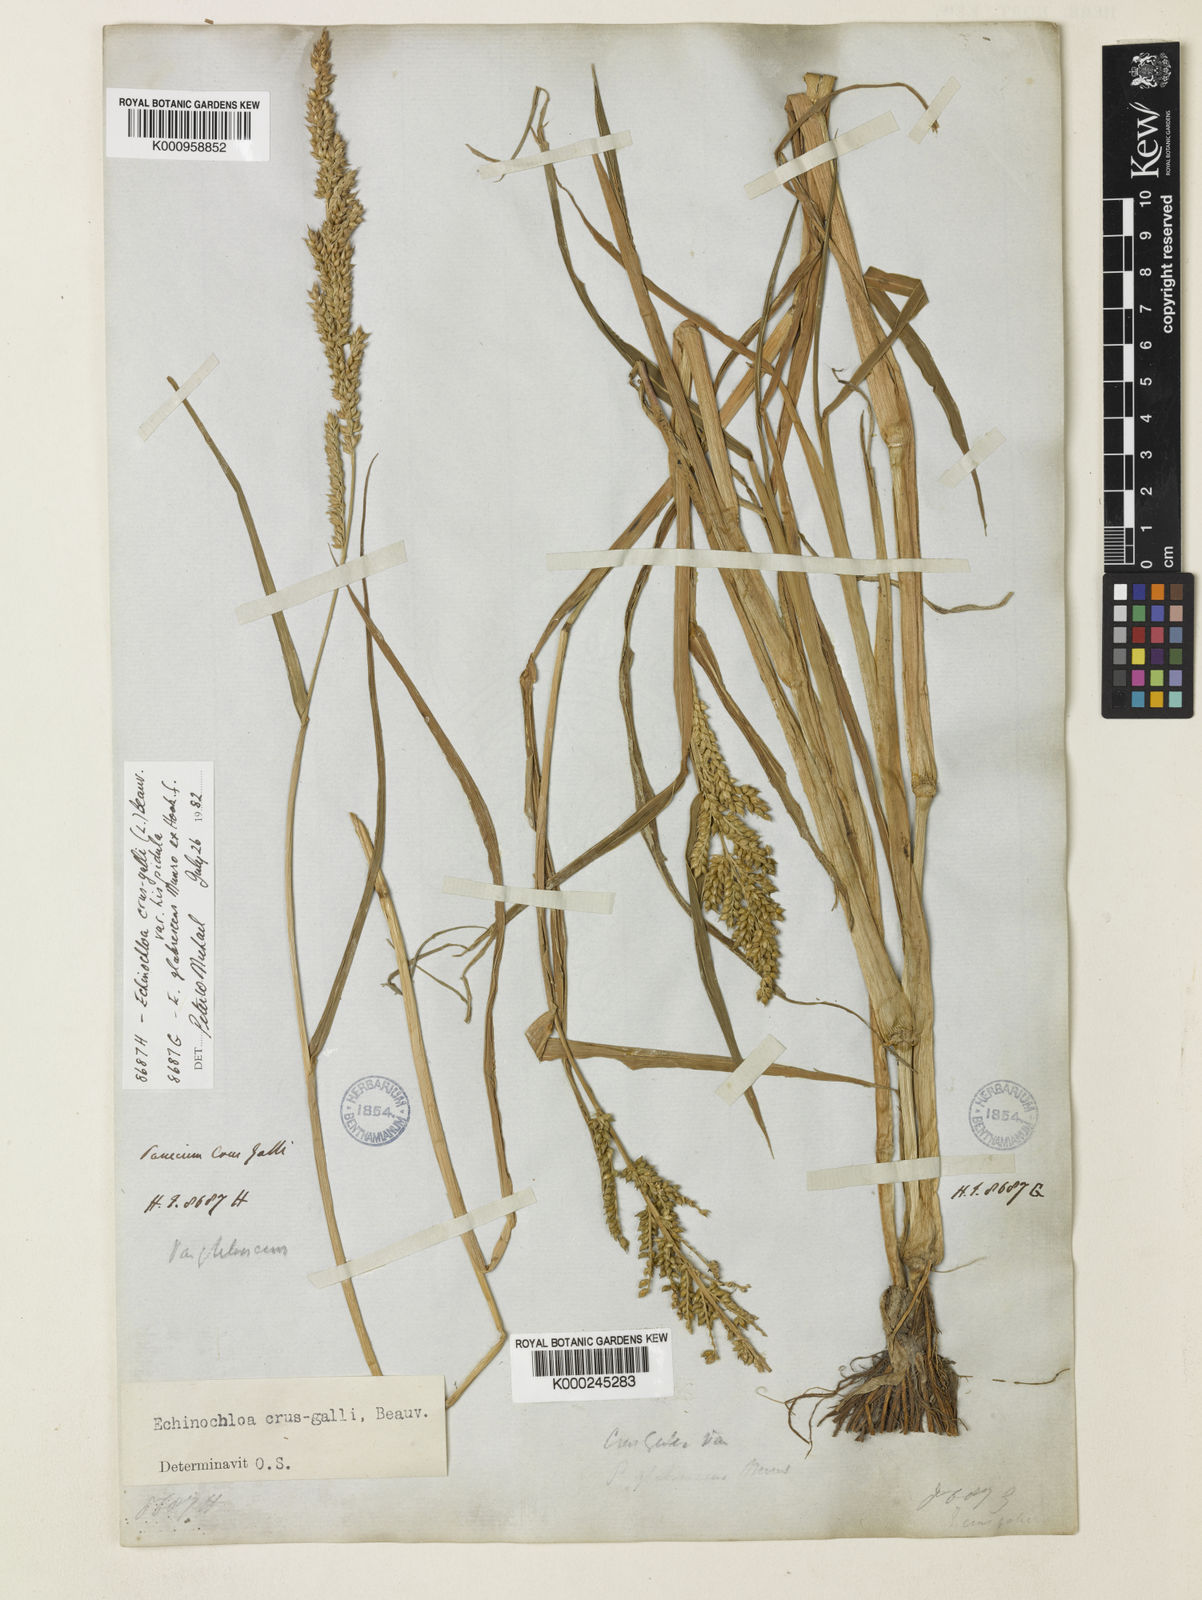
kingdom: Plantae
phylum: Tracheophyta
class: Liliopsida
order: Poales
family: Poaceae
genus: Echinochloa
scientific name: Echinochloa crus-galli
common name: Cockspur
